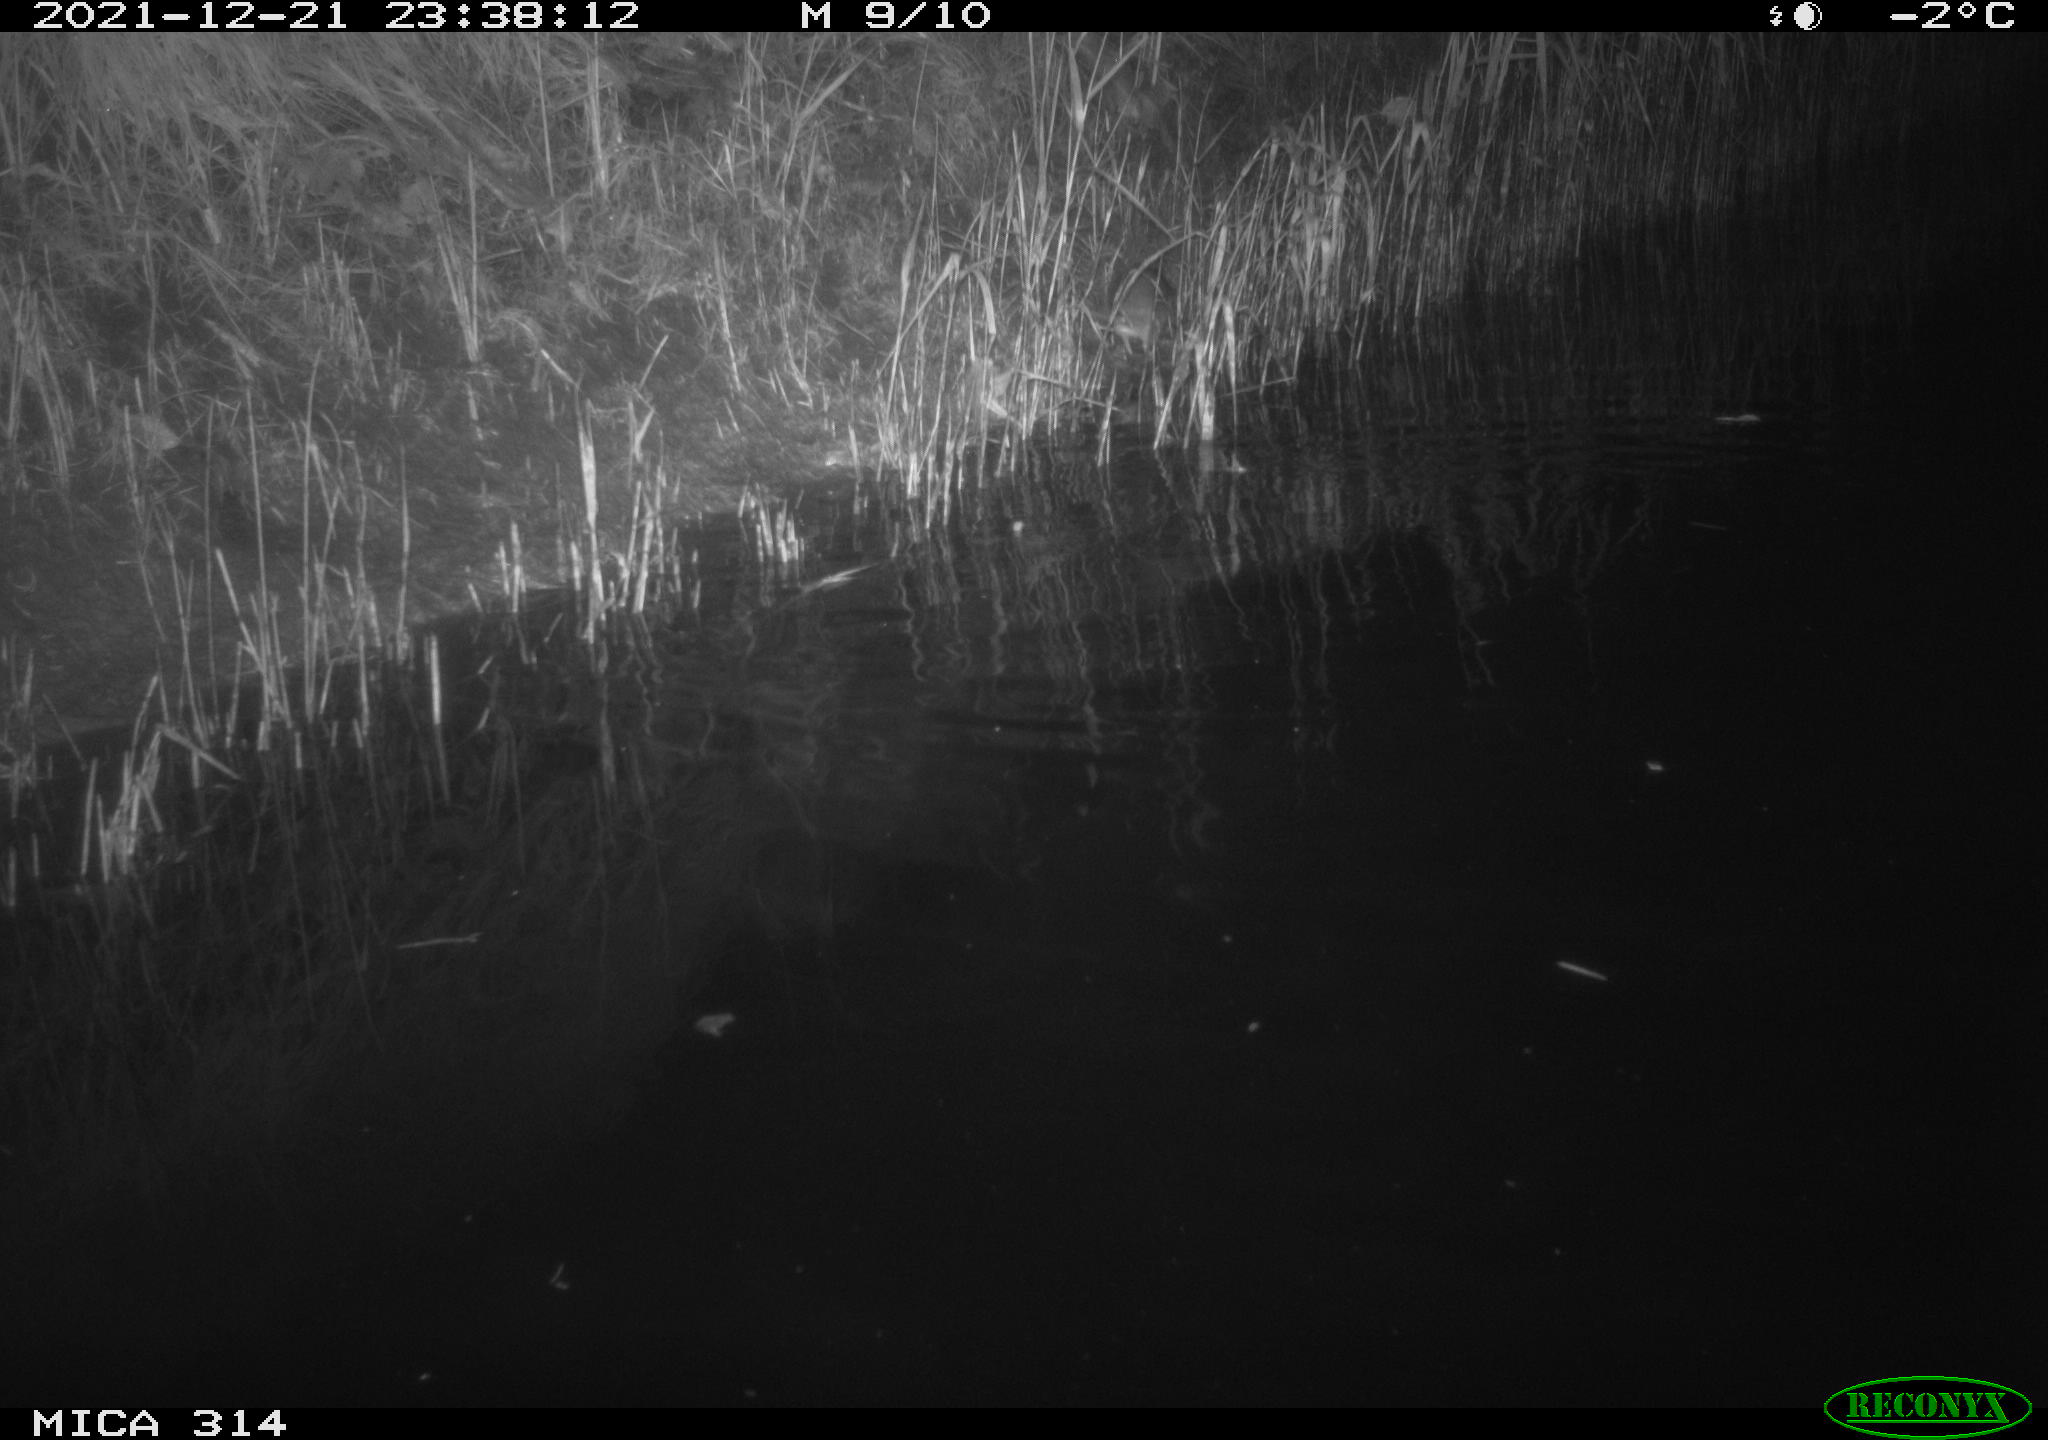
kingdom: Animalia
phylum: Chordata
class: Mammalia
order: Rodentia
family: Muridae
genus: Rattus
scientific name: Rattus norvegicus
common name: Brown rat
